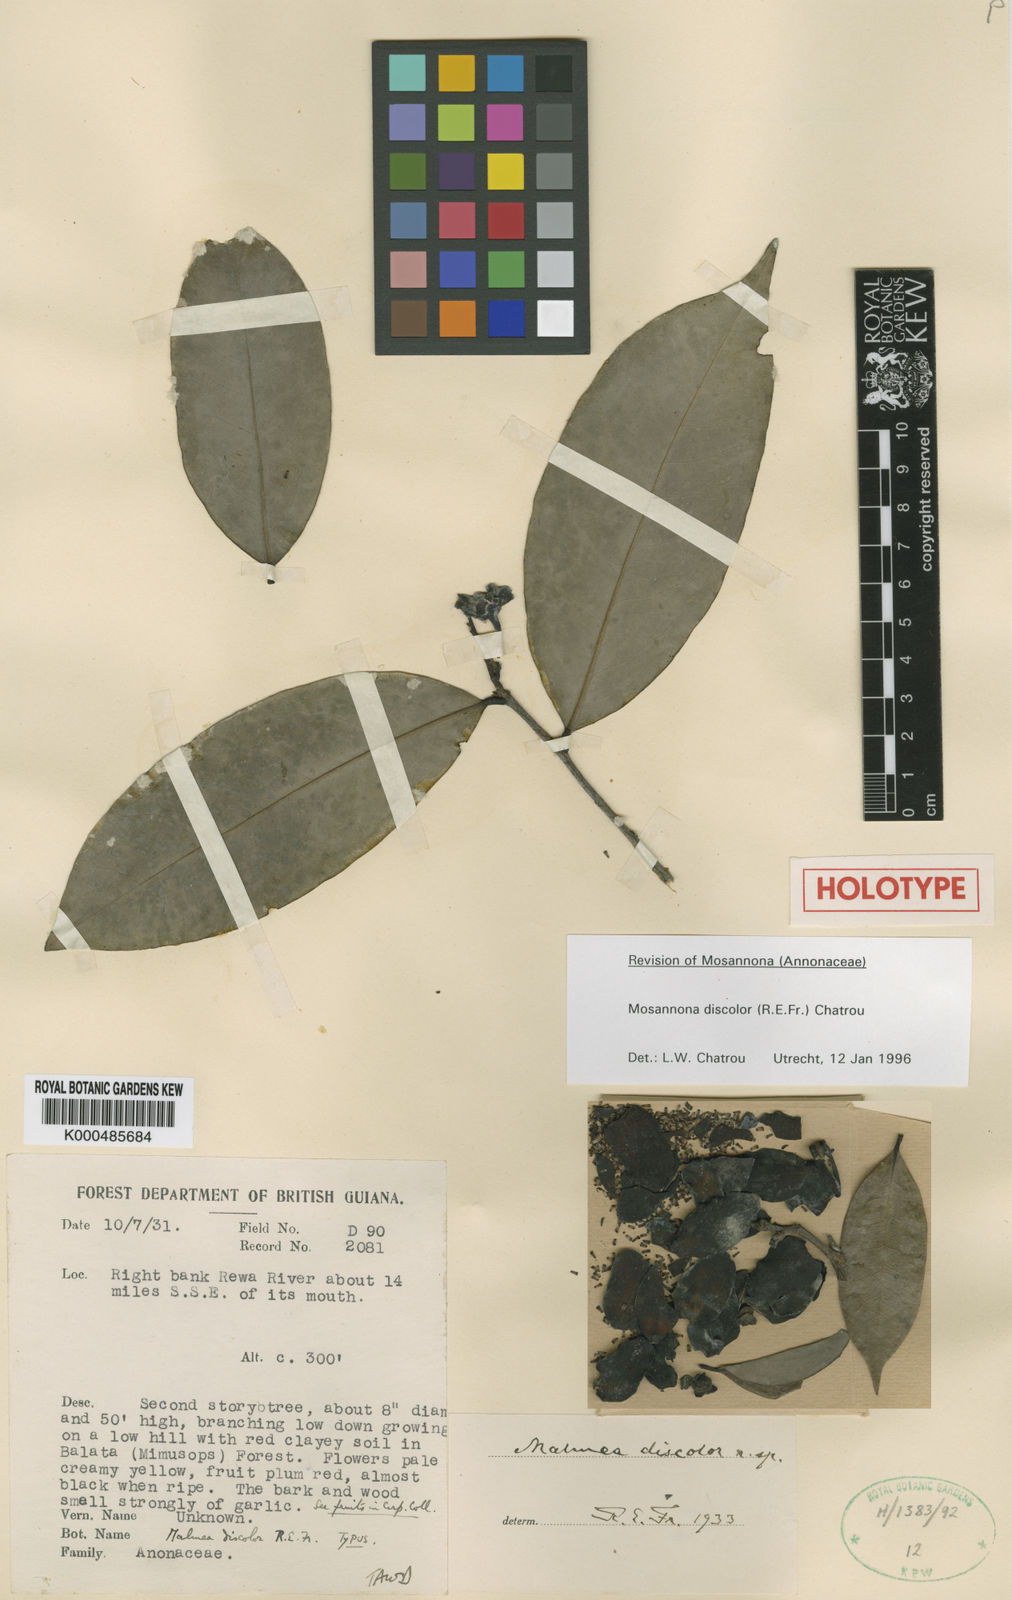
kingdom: Plantae
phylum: Tracheophyta
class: Magnoliopsida
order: Magnoliales
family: Annonaceae
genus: Mosannona
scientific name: Mosannona discolor
